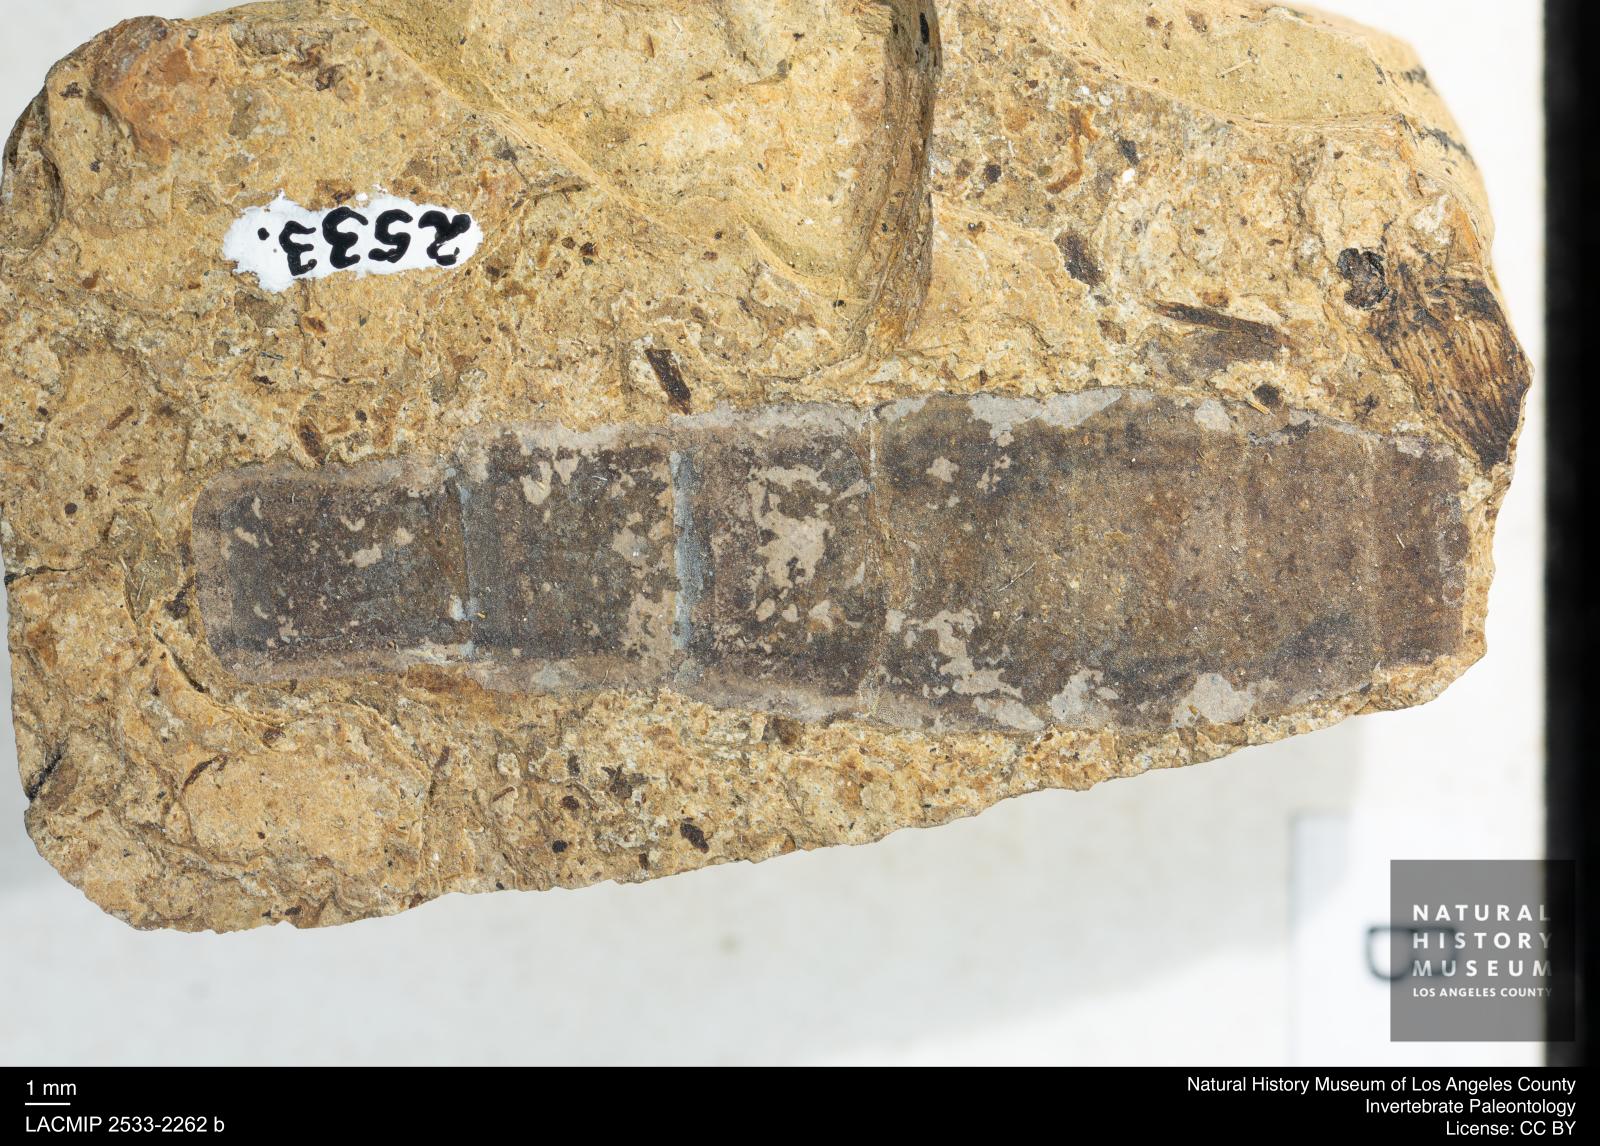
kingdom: Animalia
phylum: Arthropoda
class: Insecta
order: Diptera
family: Stratiomyidae
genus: Odontomyia
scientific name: Odontomyia
